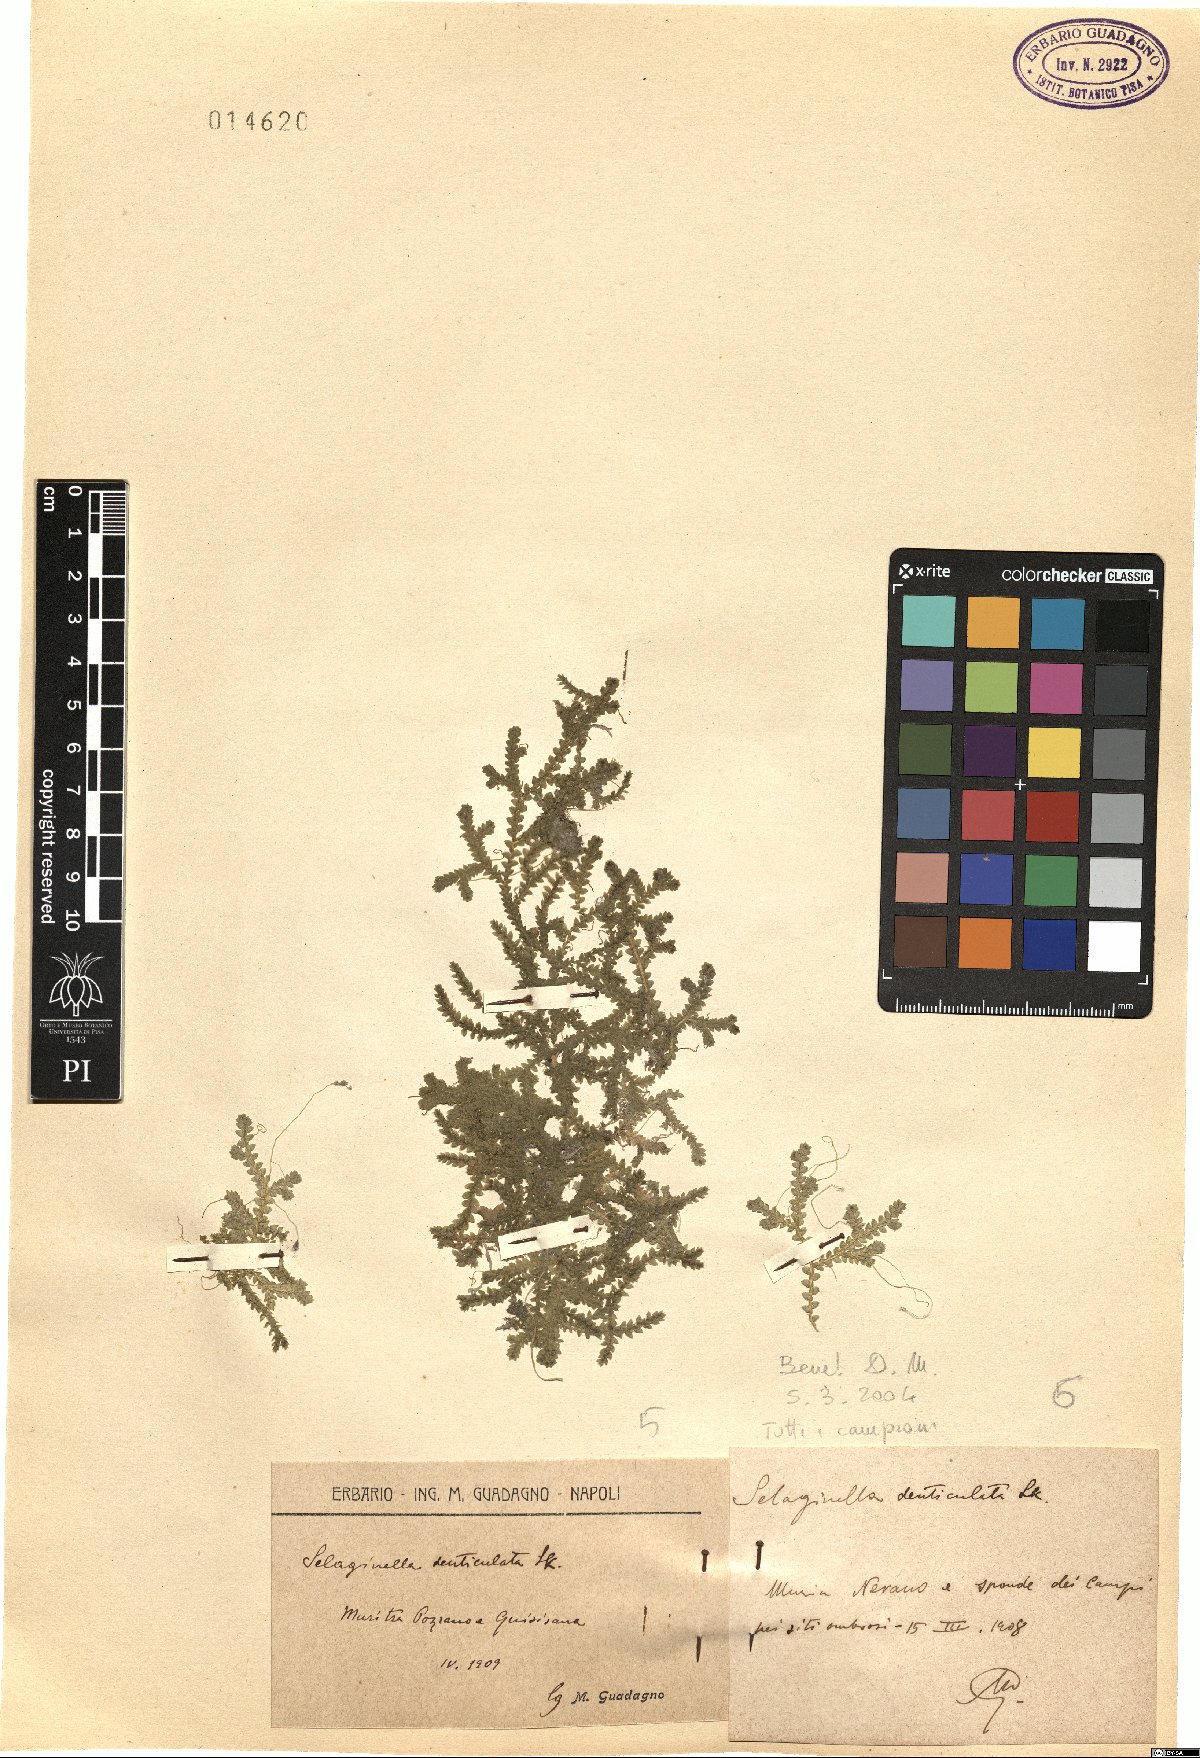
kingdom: Plantae
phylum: Tracheophyta
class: Lycopodiopsida
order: Selaginellales
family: Selaginellaceae
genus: Selaginella
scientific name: Selaginella denticulata
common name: Toothed-leaved clubmoss
